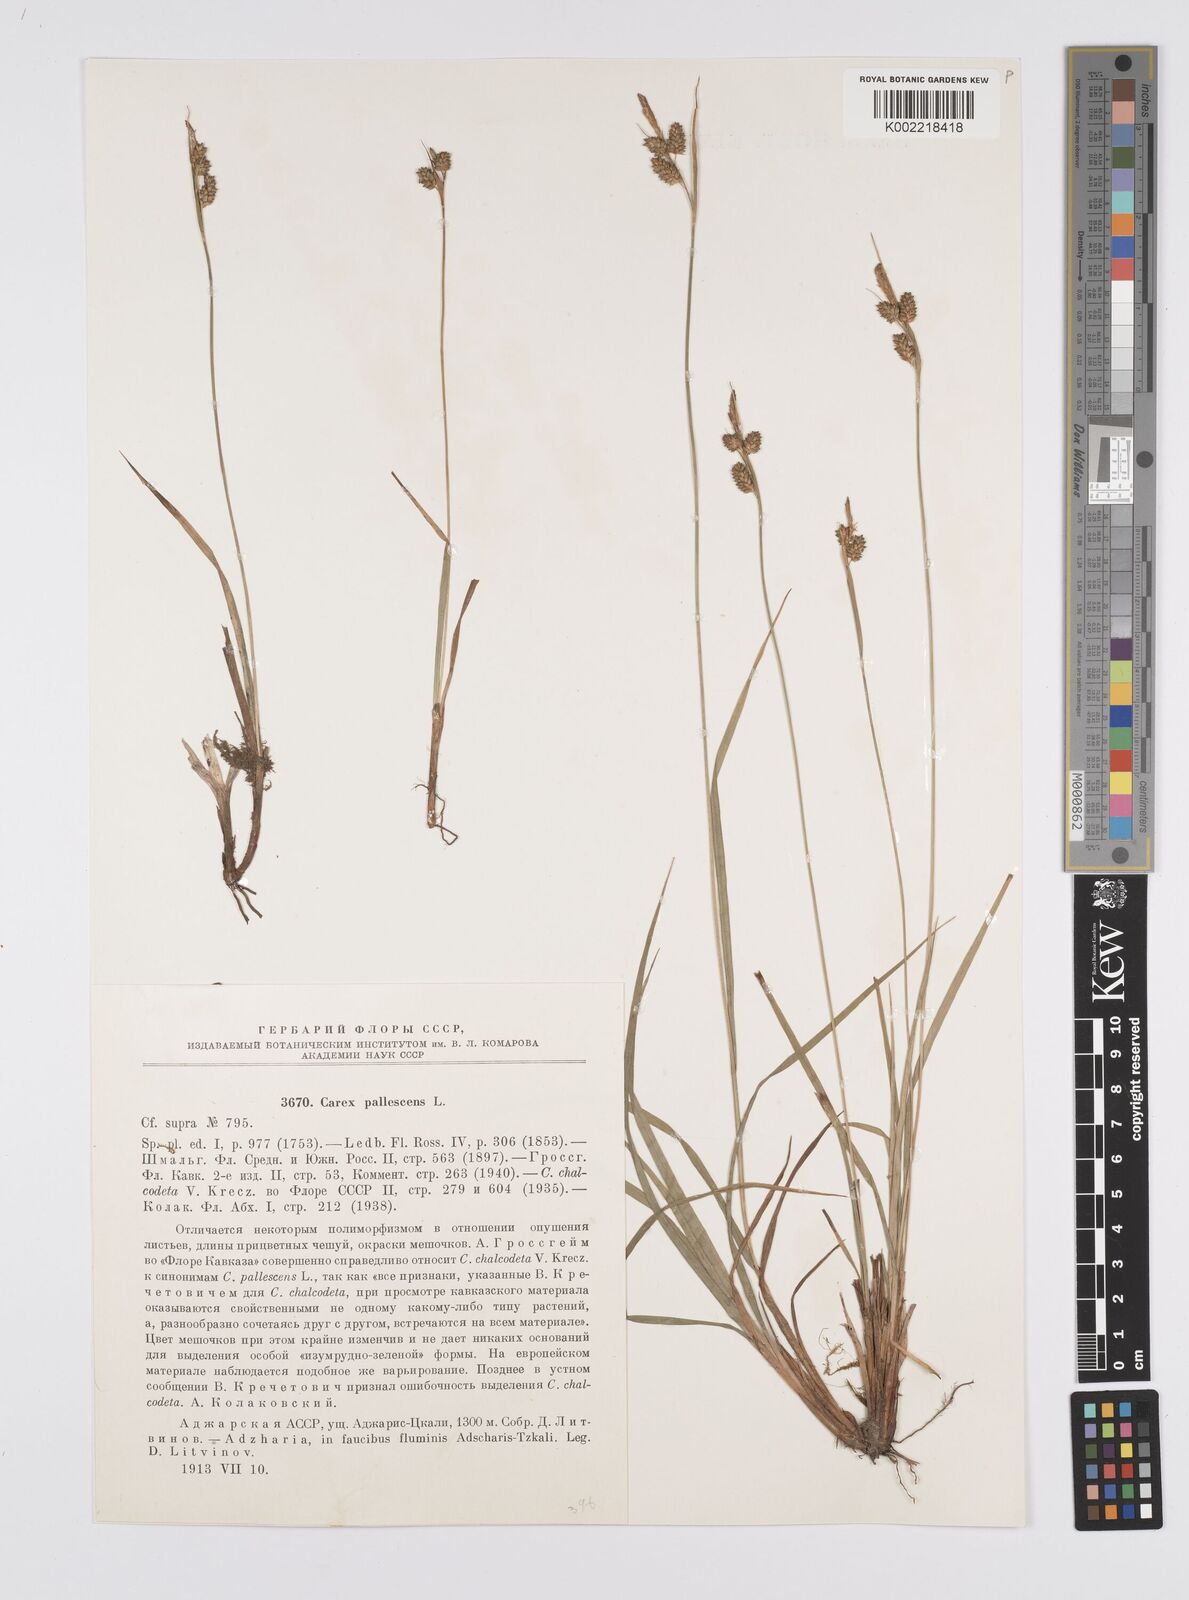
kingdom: Plantae
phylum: Tracheophyta
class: Liliopsida
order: Poales
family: Cyperaceae
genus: Carex
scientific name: Carex pallescens
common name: Pale sedge
